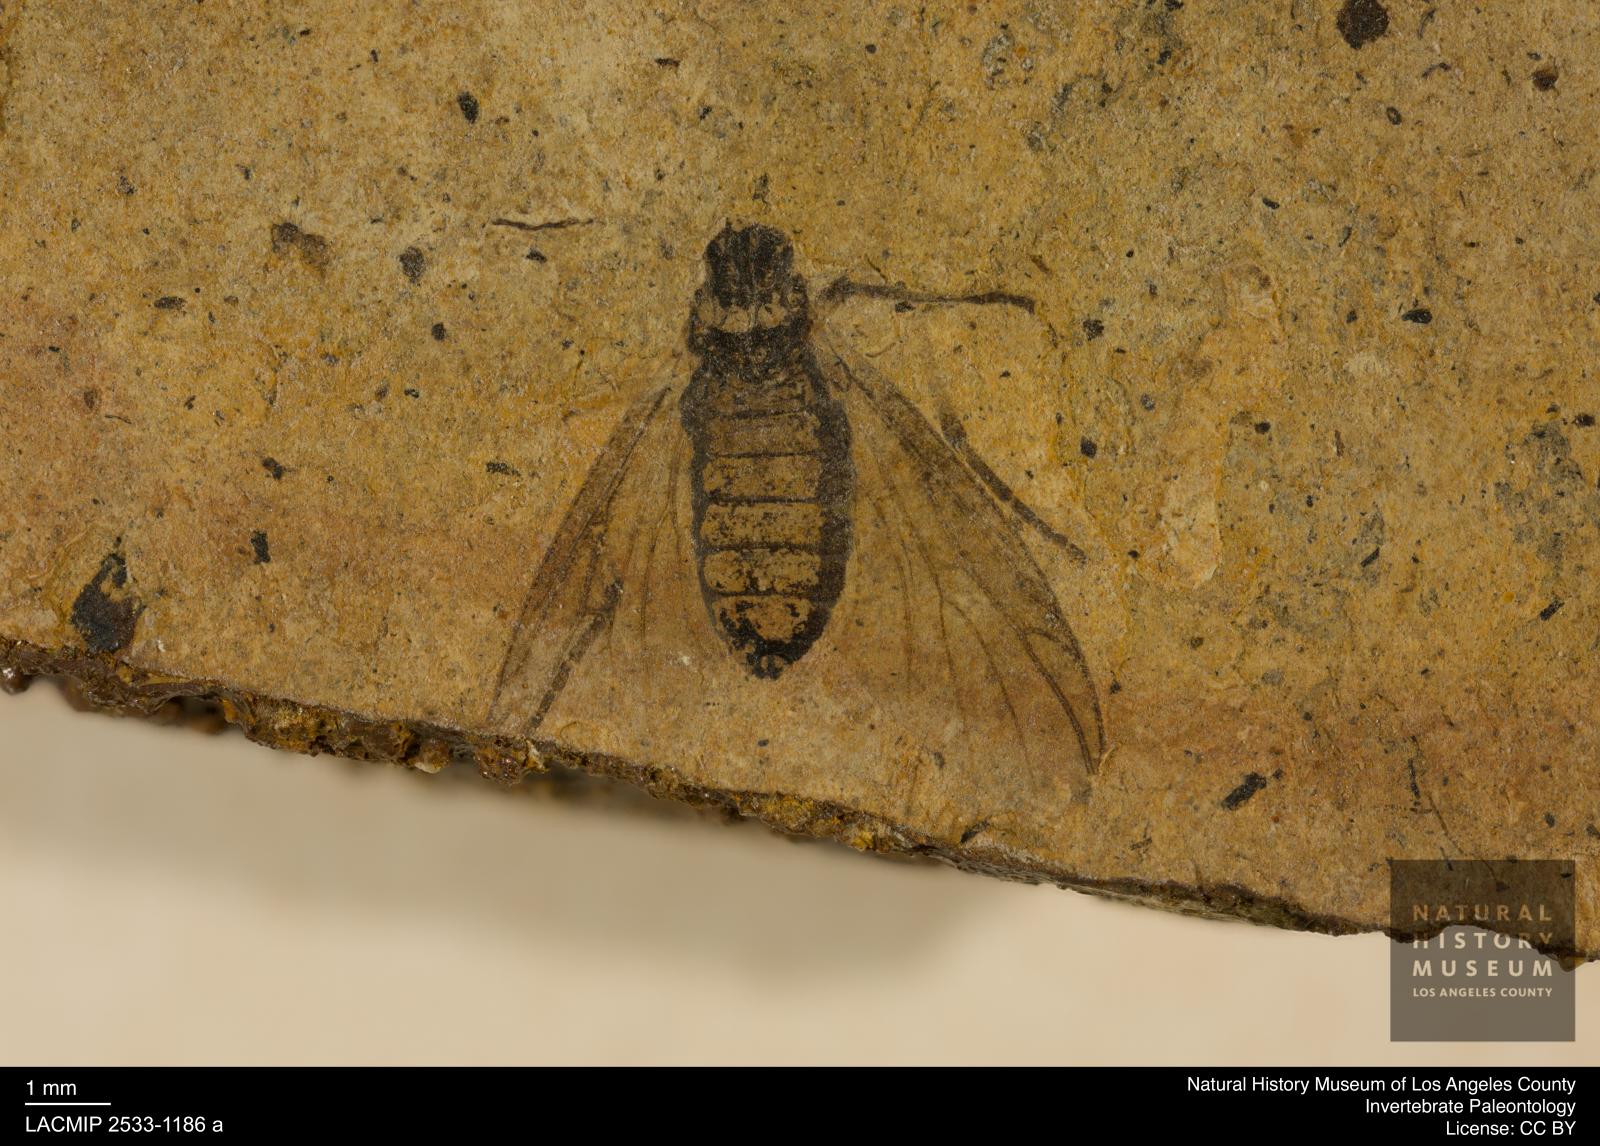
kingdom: Animalia
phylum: Arthropoda
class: Insecta
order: Diptera
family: Bibionidae
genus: Plecia
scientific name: Plecia stygia
